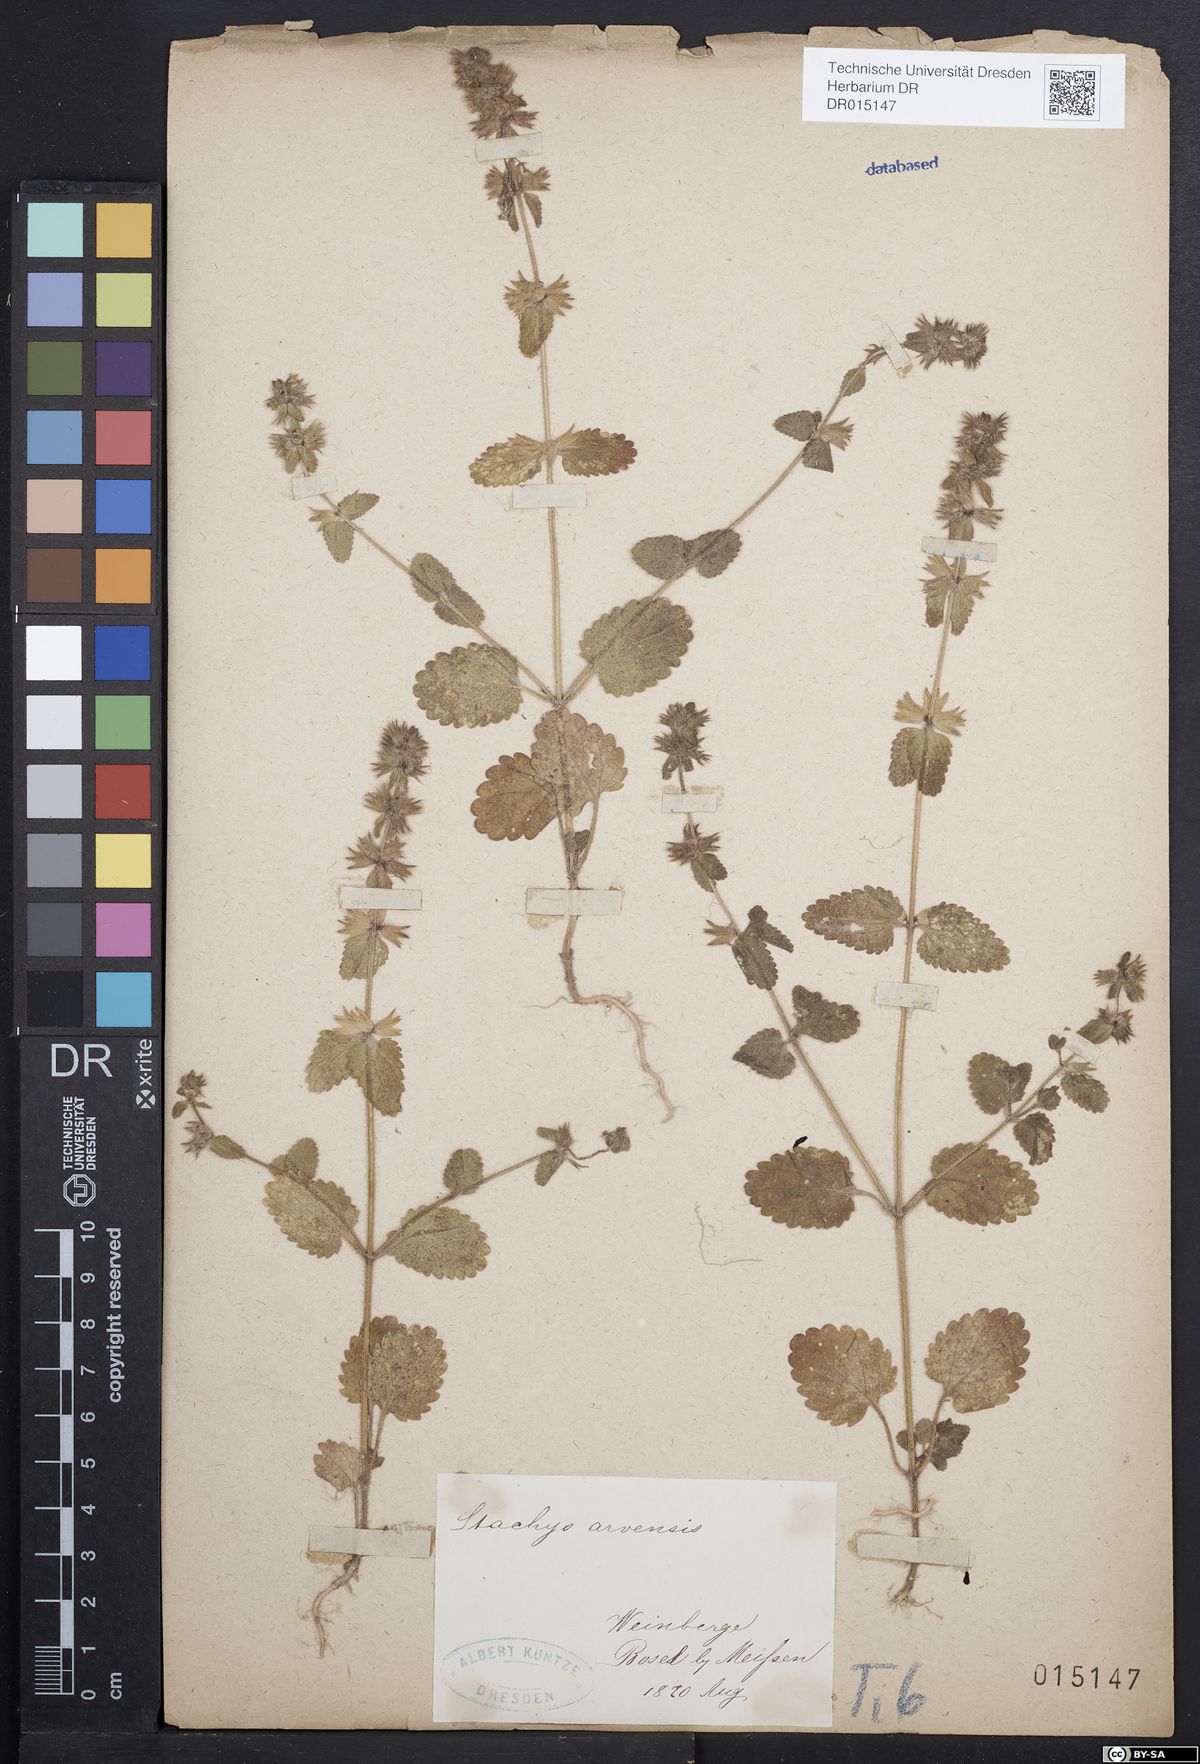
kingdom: Plantae
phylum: Tracheophyta
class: Magnoliopsida
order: Lamiales
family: Lamiaceae
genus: Stachys
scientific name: Stachys arvensis
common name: Field woundwort
